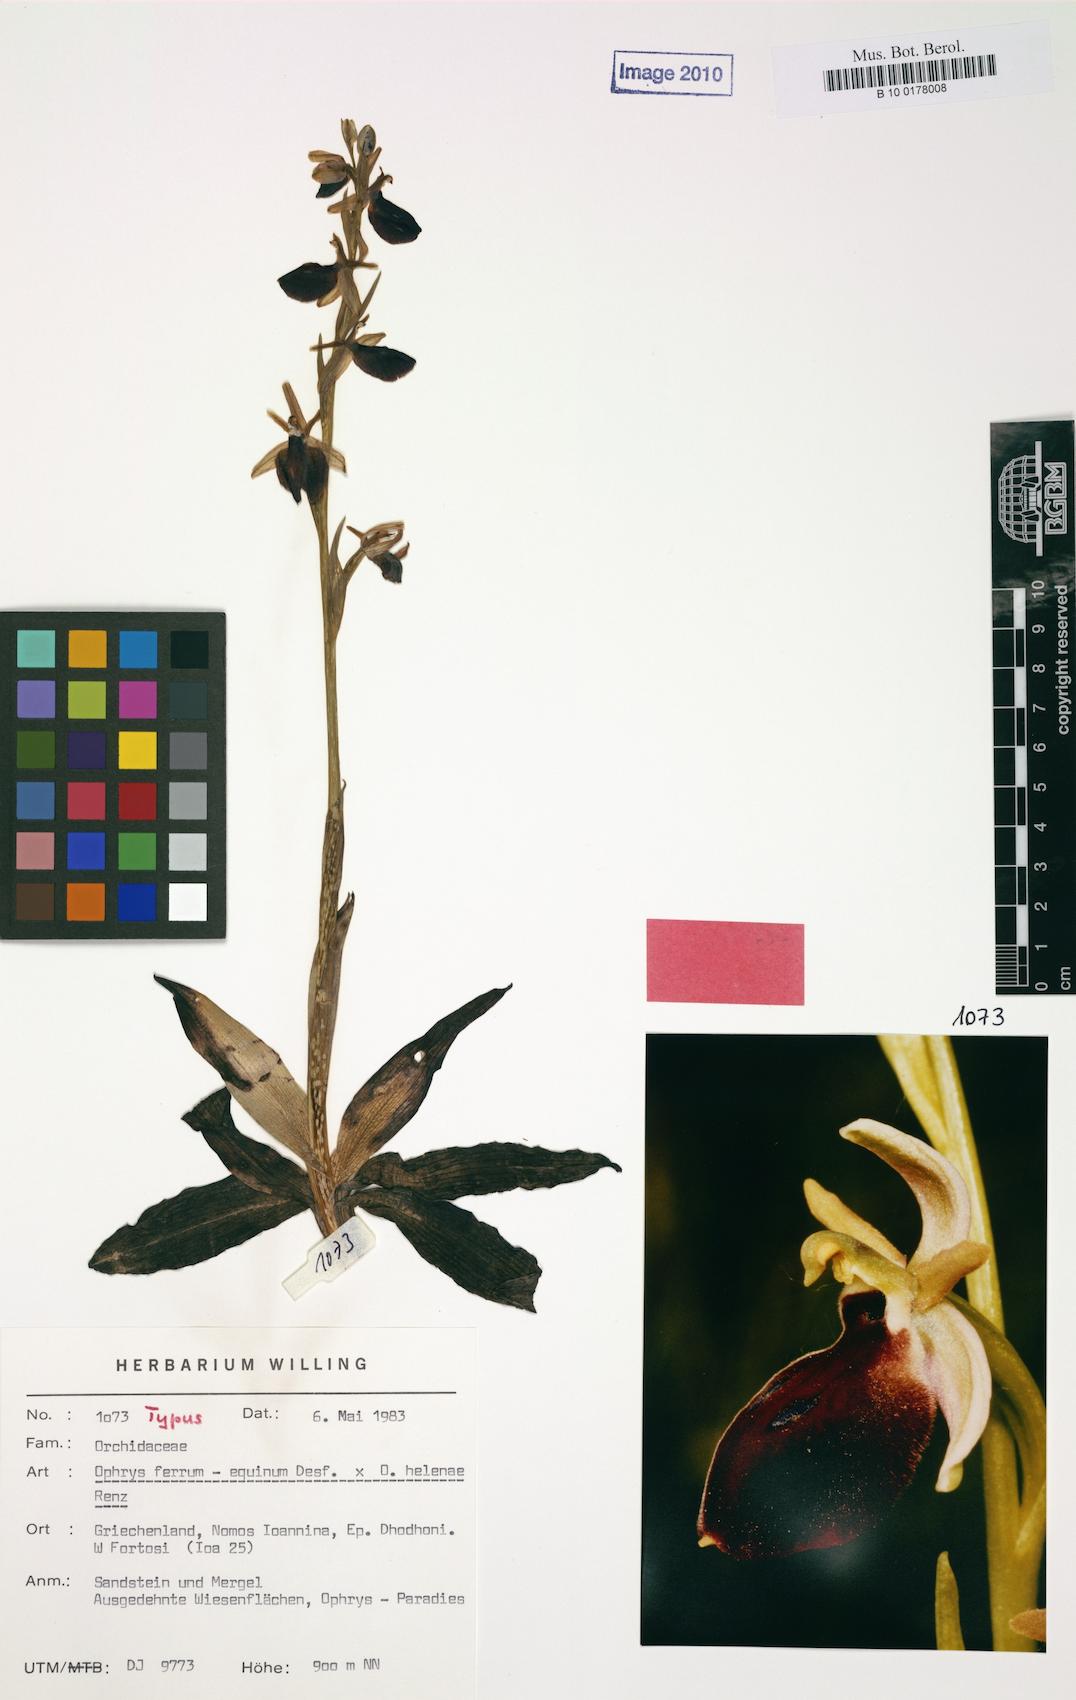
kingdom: Plantae
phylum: Tracheophyta
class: Liliopsida
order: Asparagales
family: Orchidaceae
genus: Ophrys
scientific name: Ophrys ferrum-equinum
